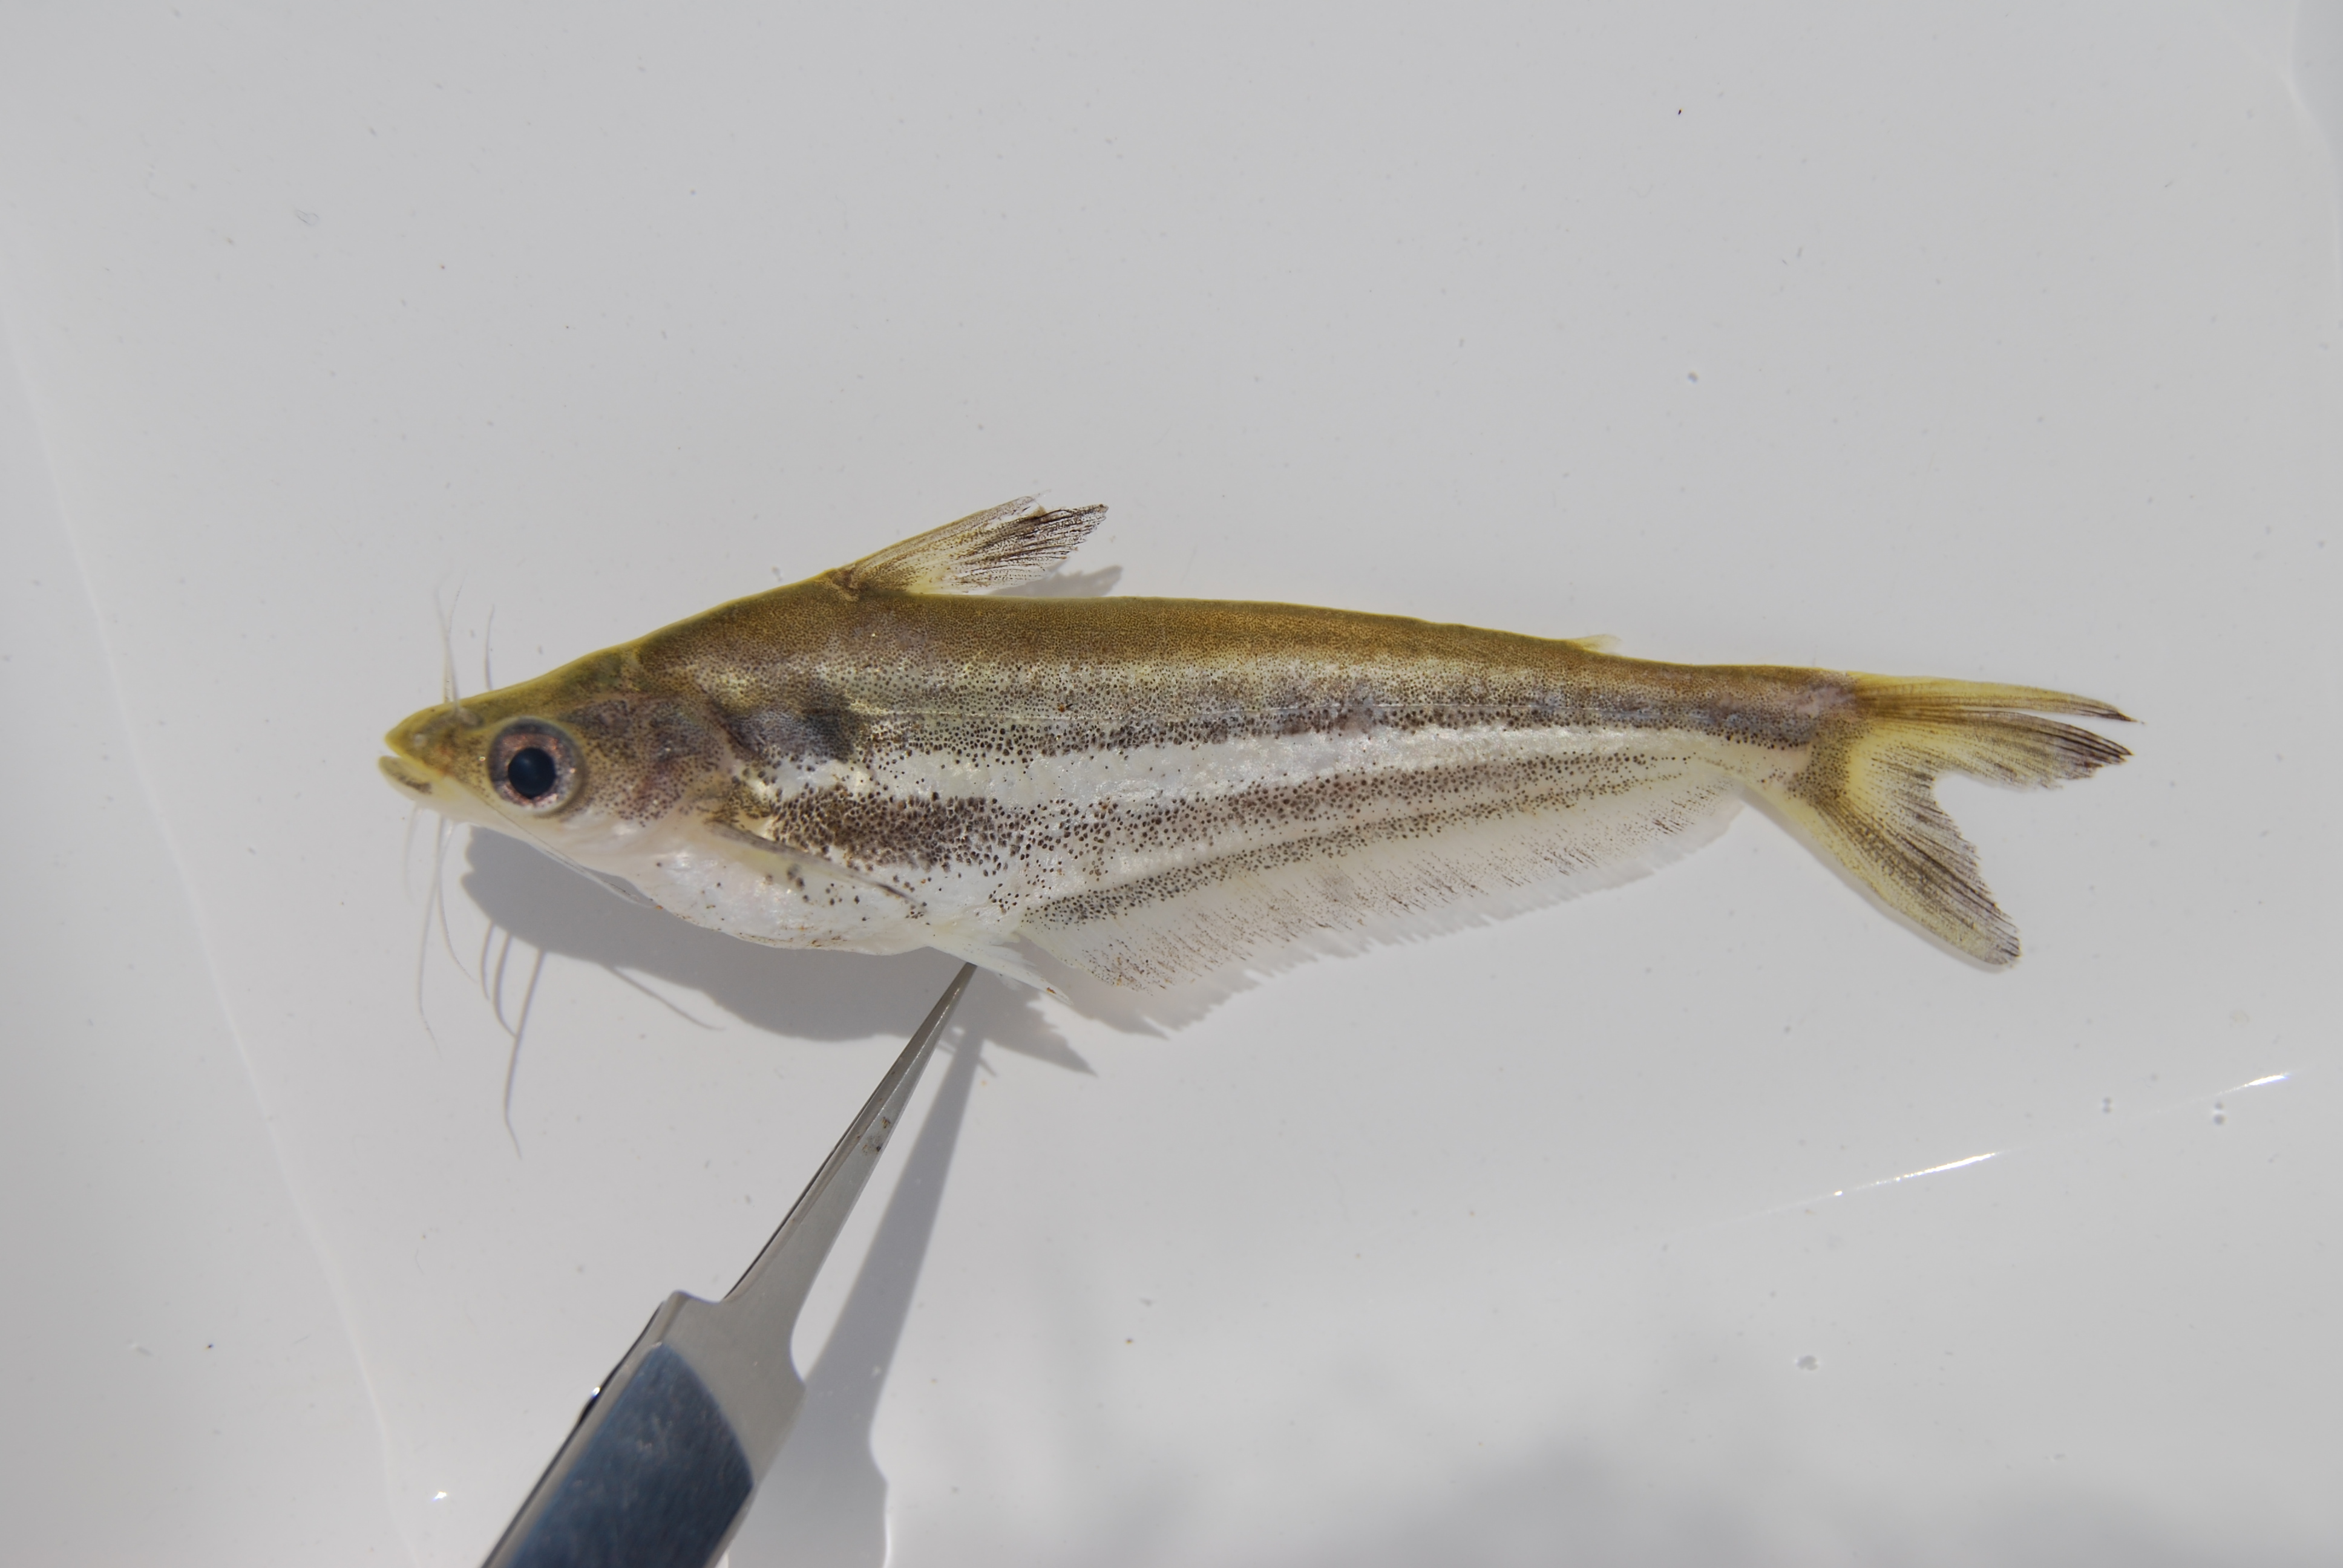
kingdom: Animalia
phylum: Chordata
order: Siluriformes
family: Schilbeidae
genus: Schilbe
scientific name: Schilbe intermedius
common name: Silver catfish
